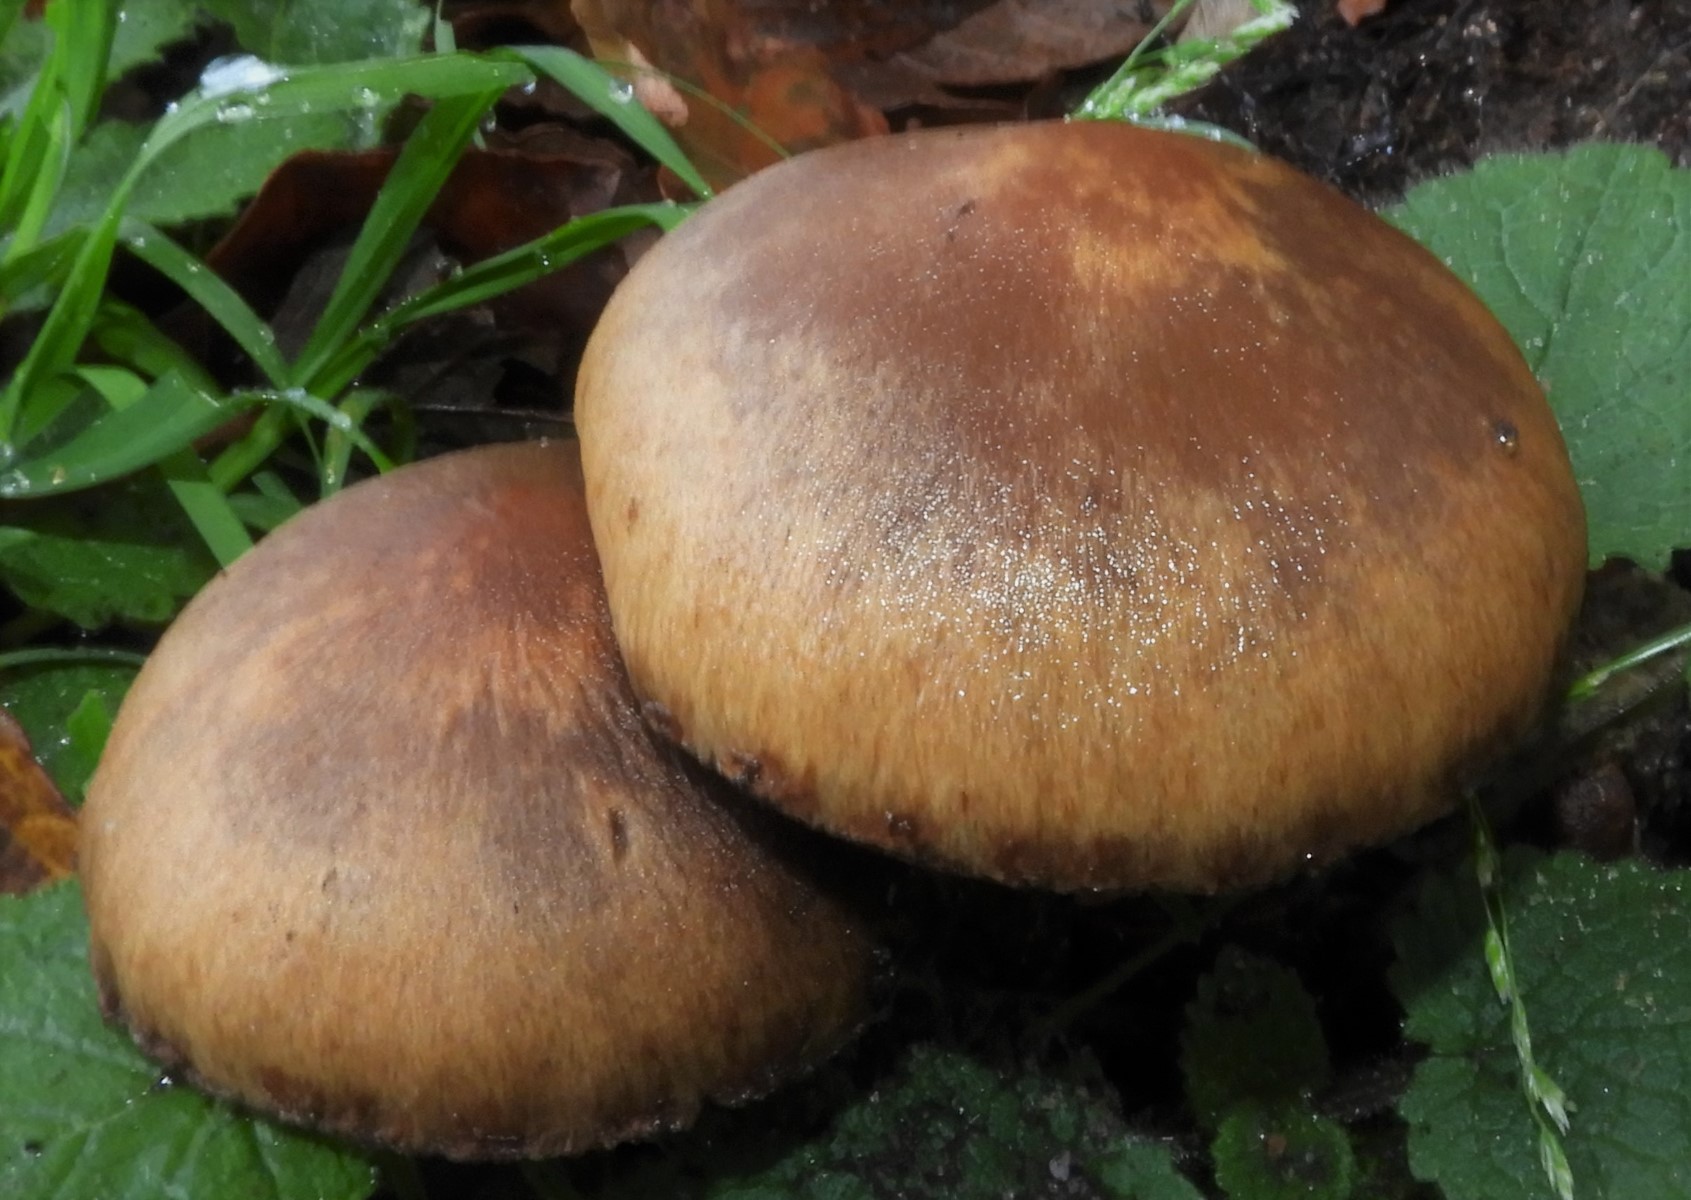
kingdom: Fungi
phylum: Basidiomycota
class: Agaricomycetes
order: Agaricales
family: Psathyrellaceae
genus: Lacrymaria
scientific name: Lacrymaria
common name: mørkhat
